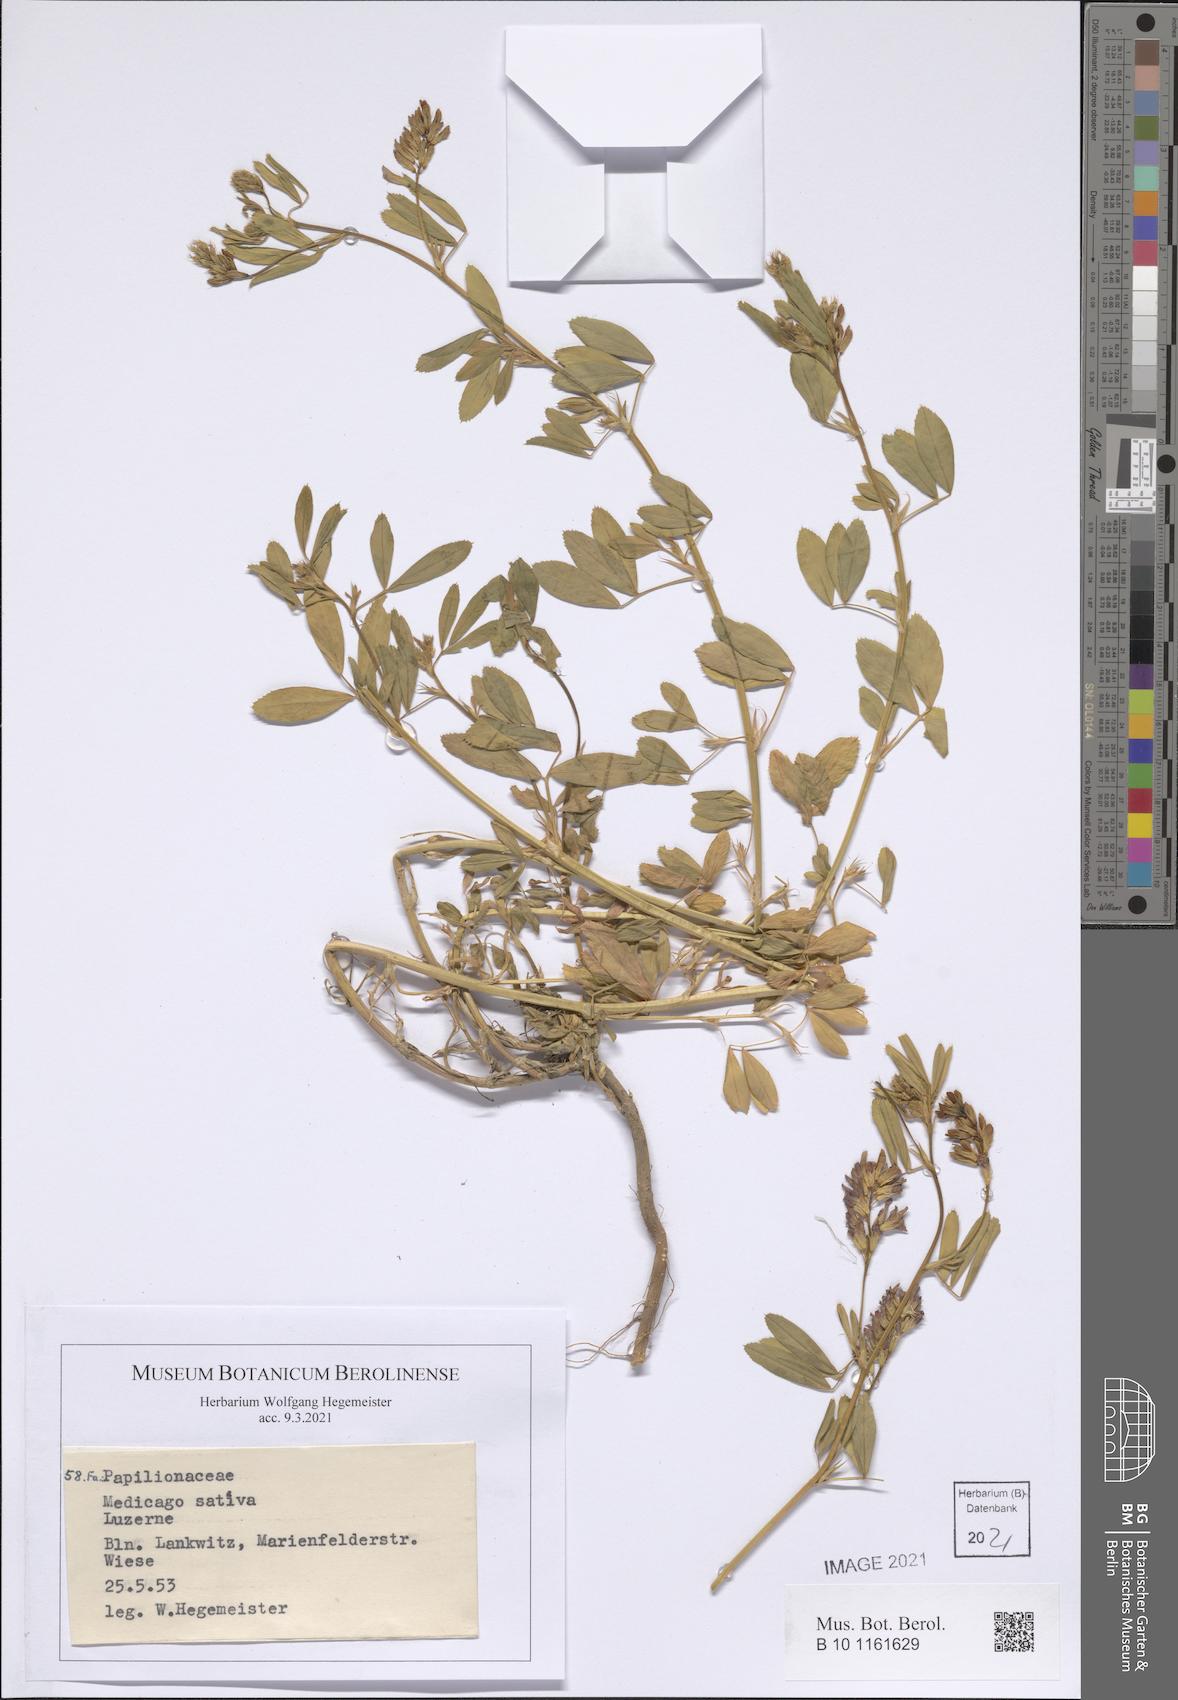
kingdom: Plantae
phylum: Tracheophyta
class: Magnoliopsida
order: Fabales
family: Fabaceae
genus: Medicago
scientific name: Medicago sativa
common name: Alfalfa
